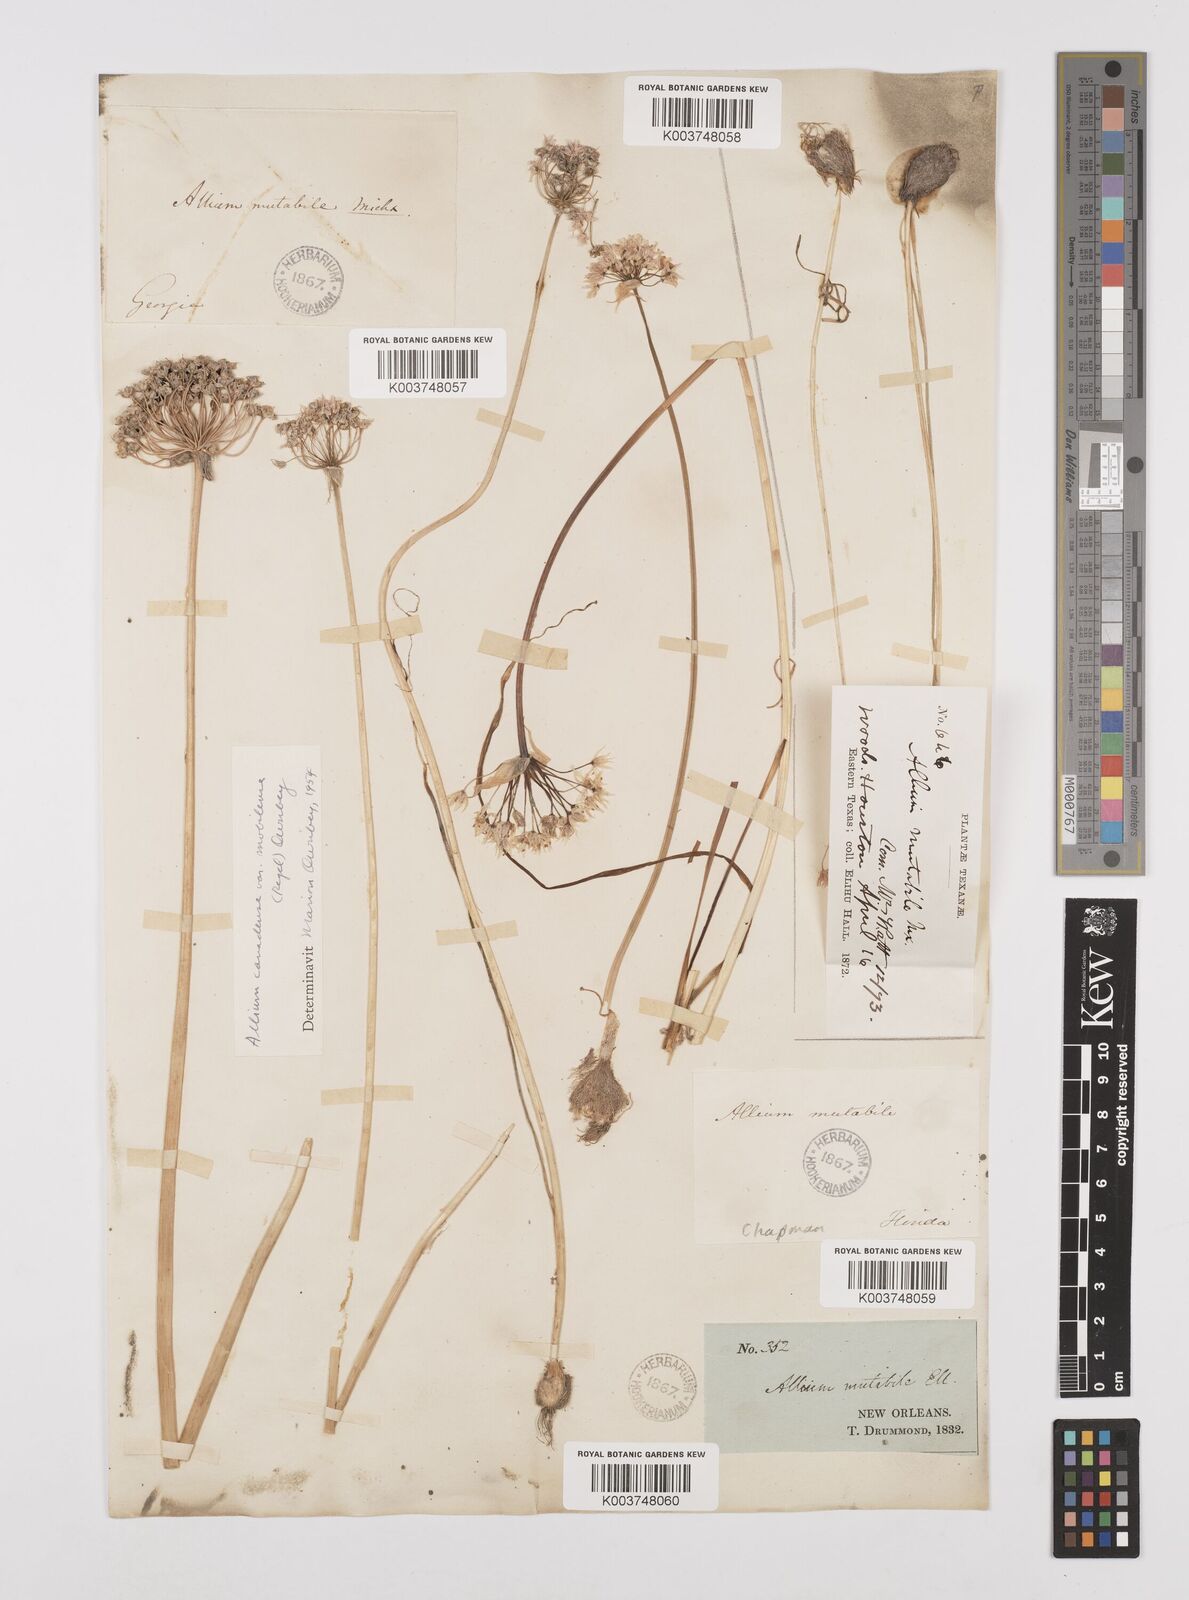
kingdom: Plantae
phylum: Tracheophyta
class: Liliopsida
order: Asparagales
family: Amaryllidaceae
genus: Allium
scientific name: Allium canadense
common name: Meadow garlic
